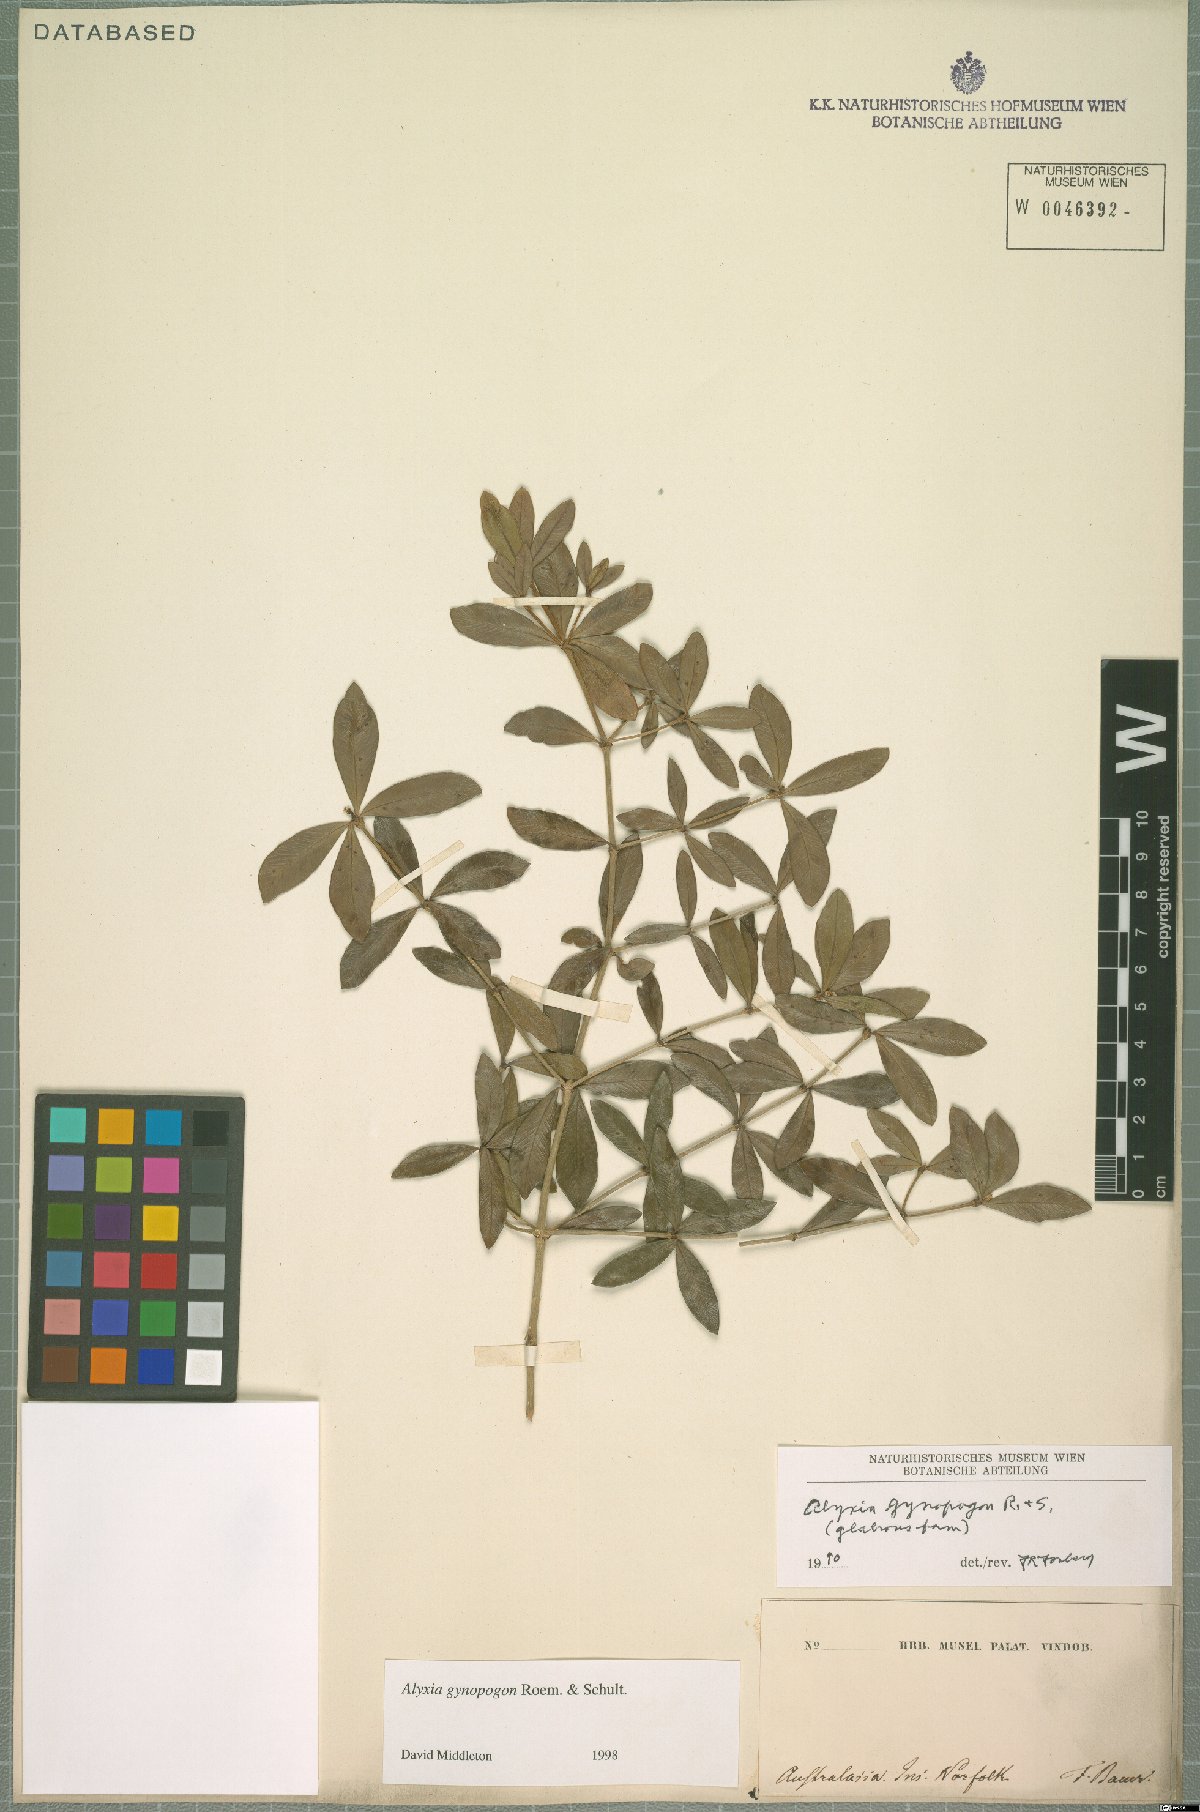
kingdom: Plantae
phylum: Tracheophyta
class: Magnoliopsida
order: Gentianales
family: Apocynaceae
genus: Alyxia
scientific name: Alyxia gynopogon
